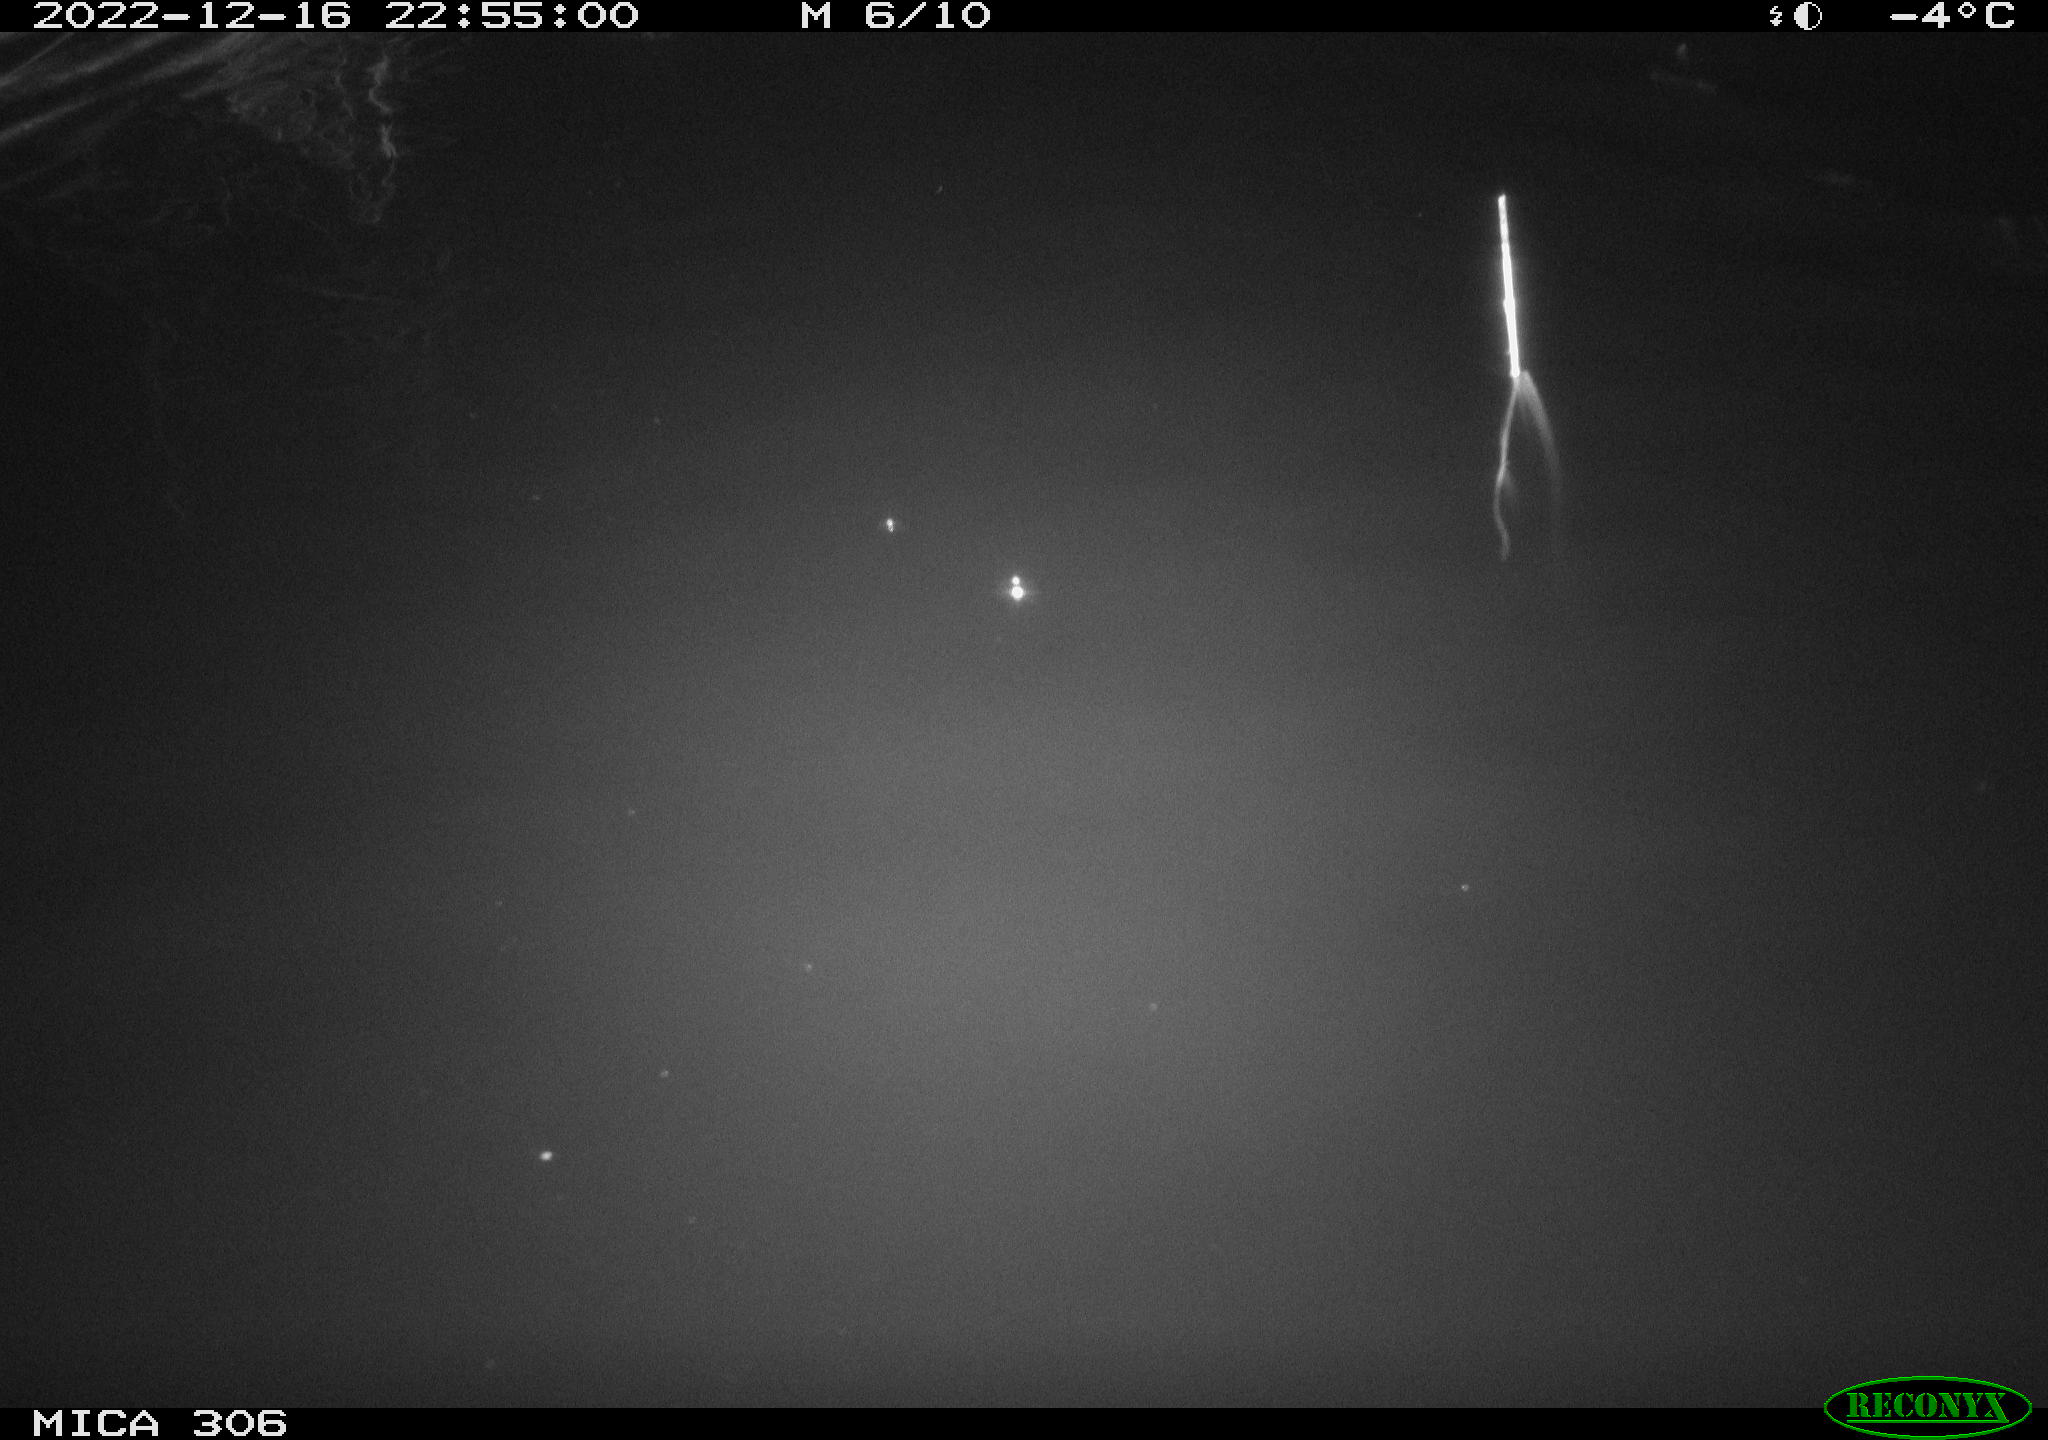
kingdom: Animalia
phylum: Chordata
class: Mammalia
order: Rodentia
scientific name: Rodentia
